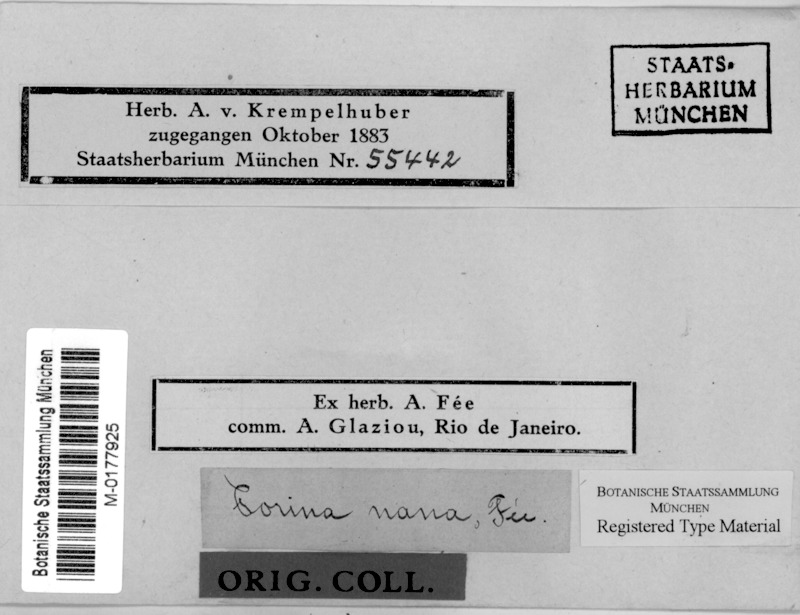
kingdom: Fungi
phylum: Ascomycota
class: Lecanoromycetes
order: Pertusariales
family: Pertusariaceae
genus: Porina
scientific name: Porina
